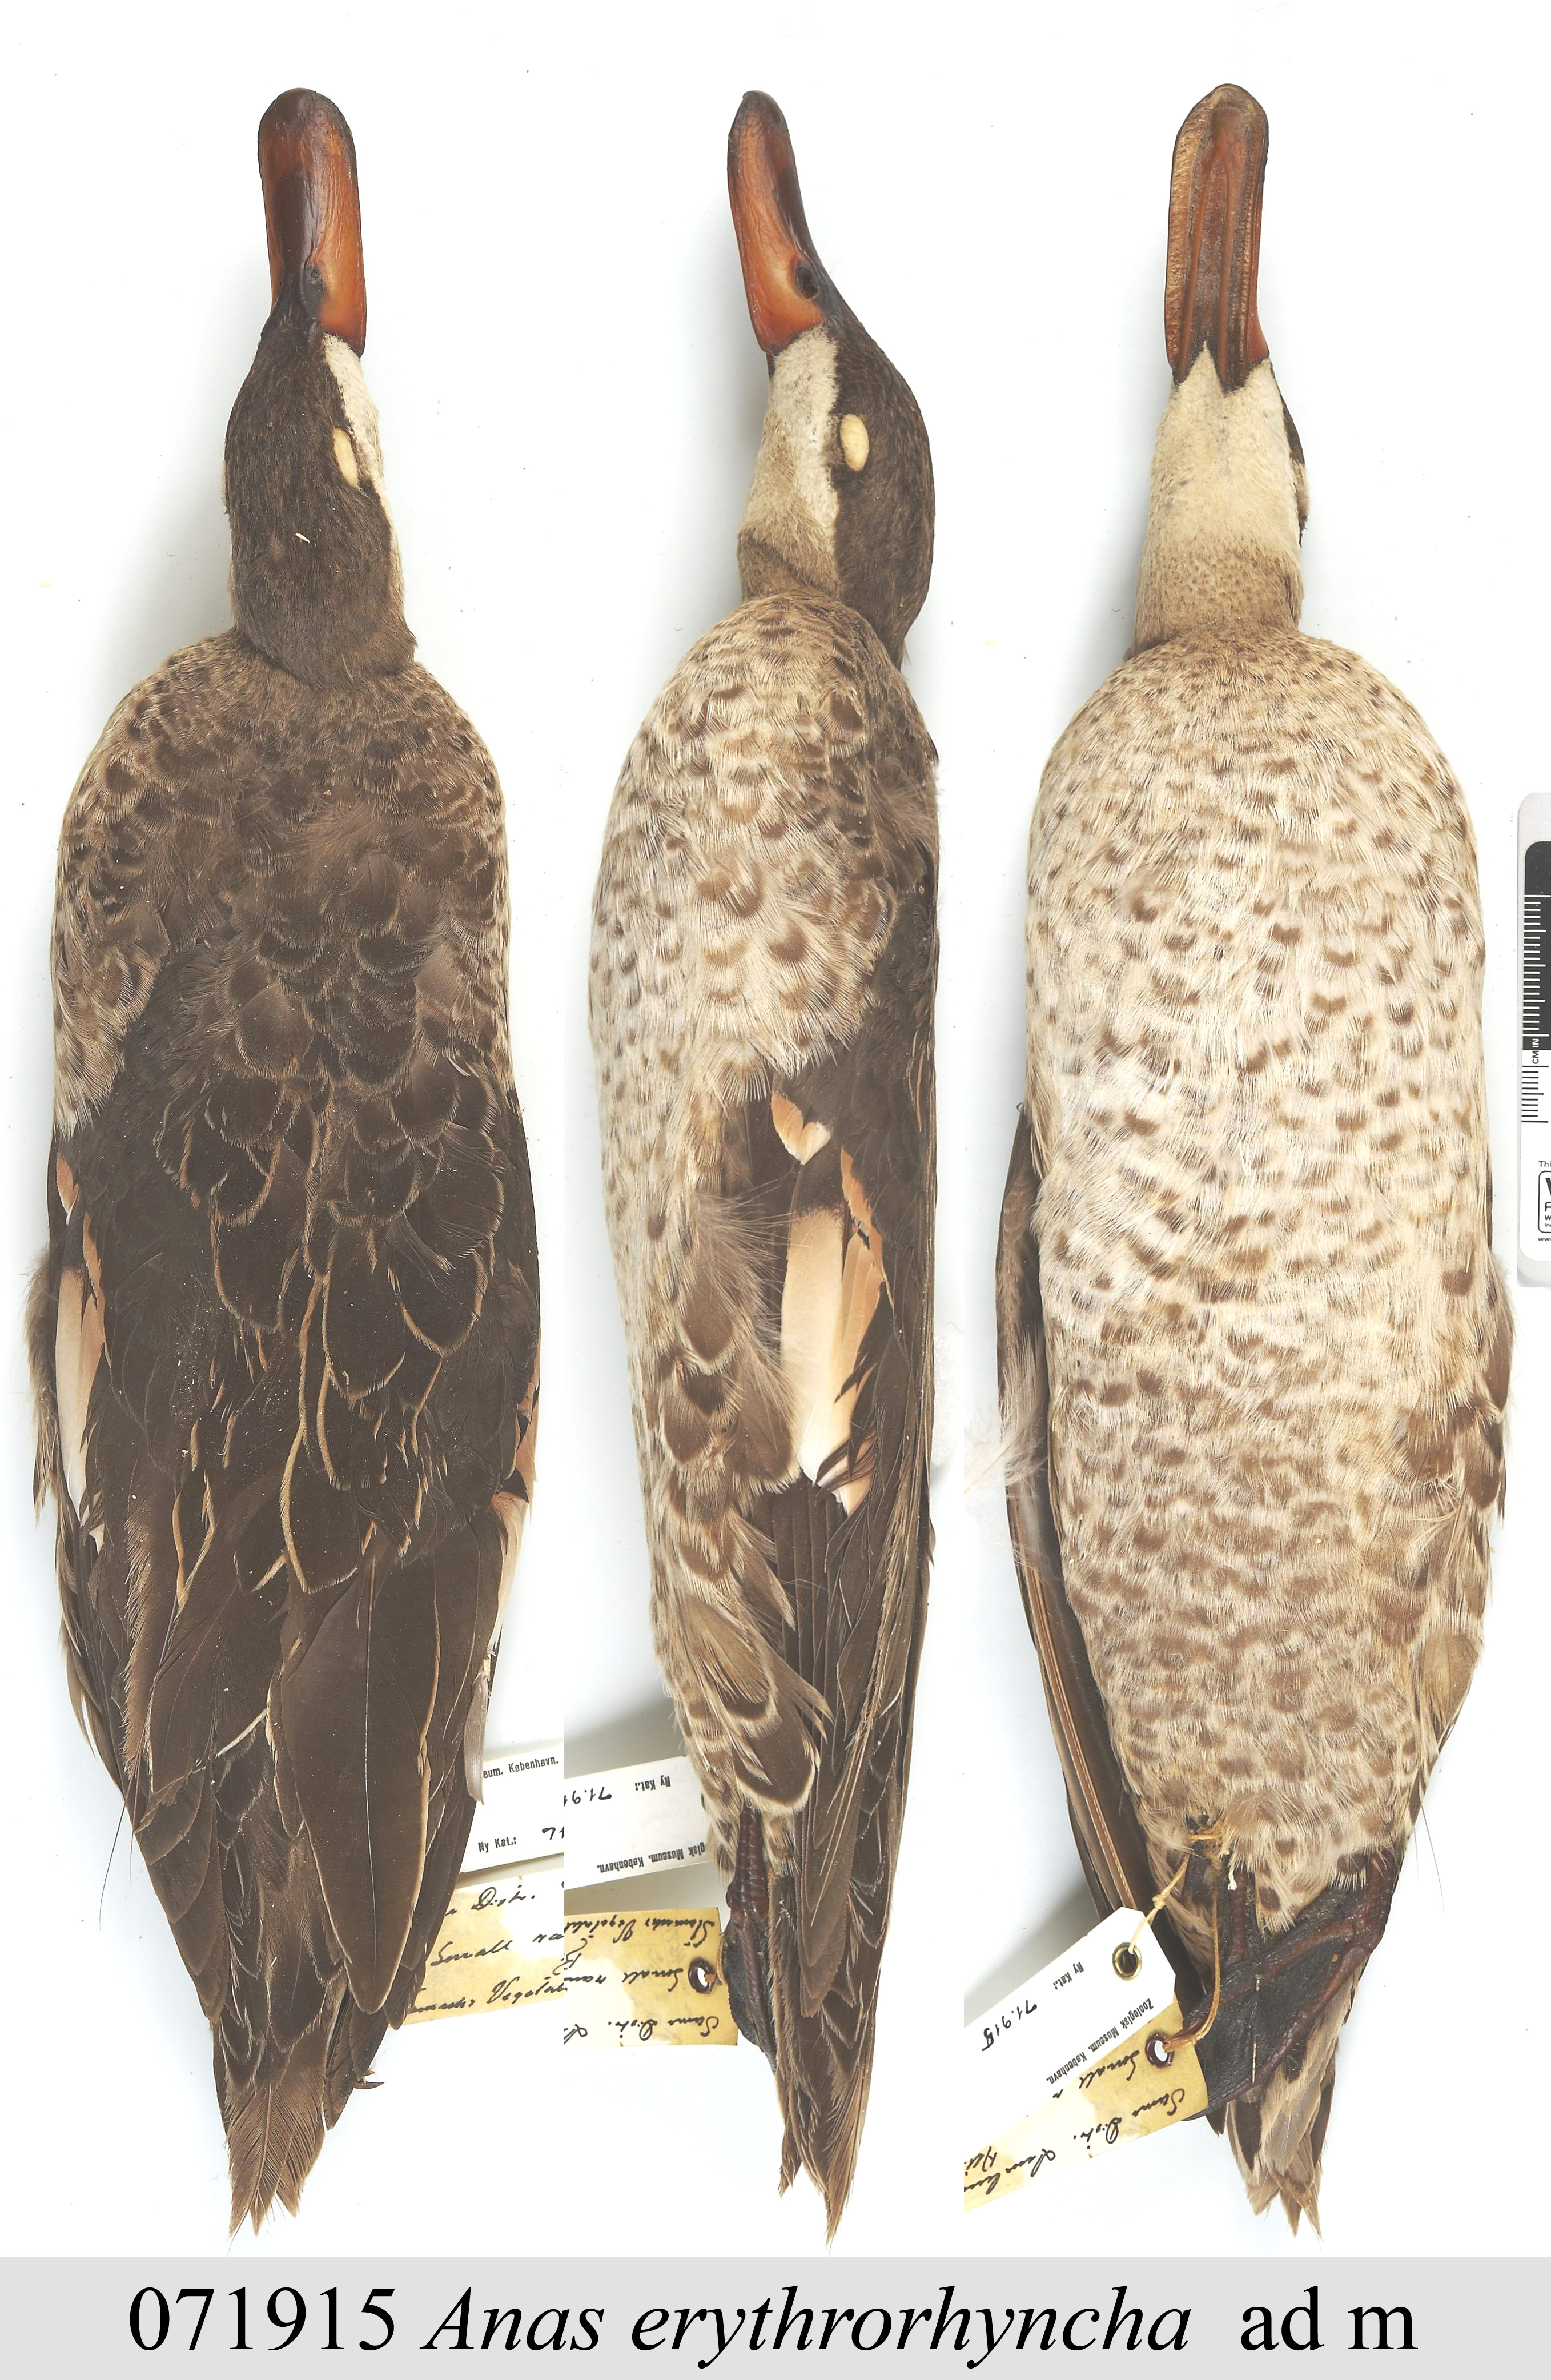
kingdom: Animalia
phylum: Chordata
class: Aves
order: Anseriformes
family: Anatidae
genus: Anas
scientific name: Anas erythrorhyncha
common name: Red-billed teal
